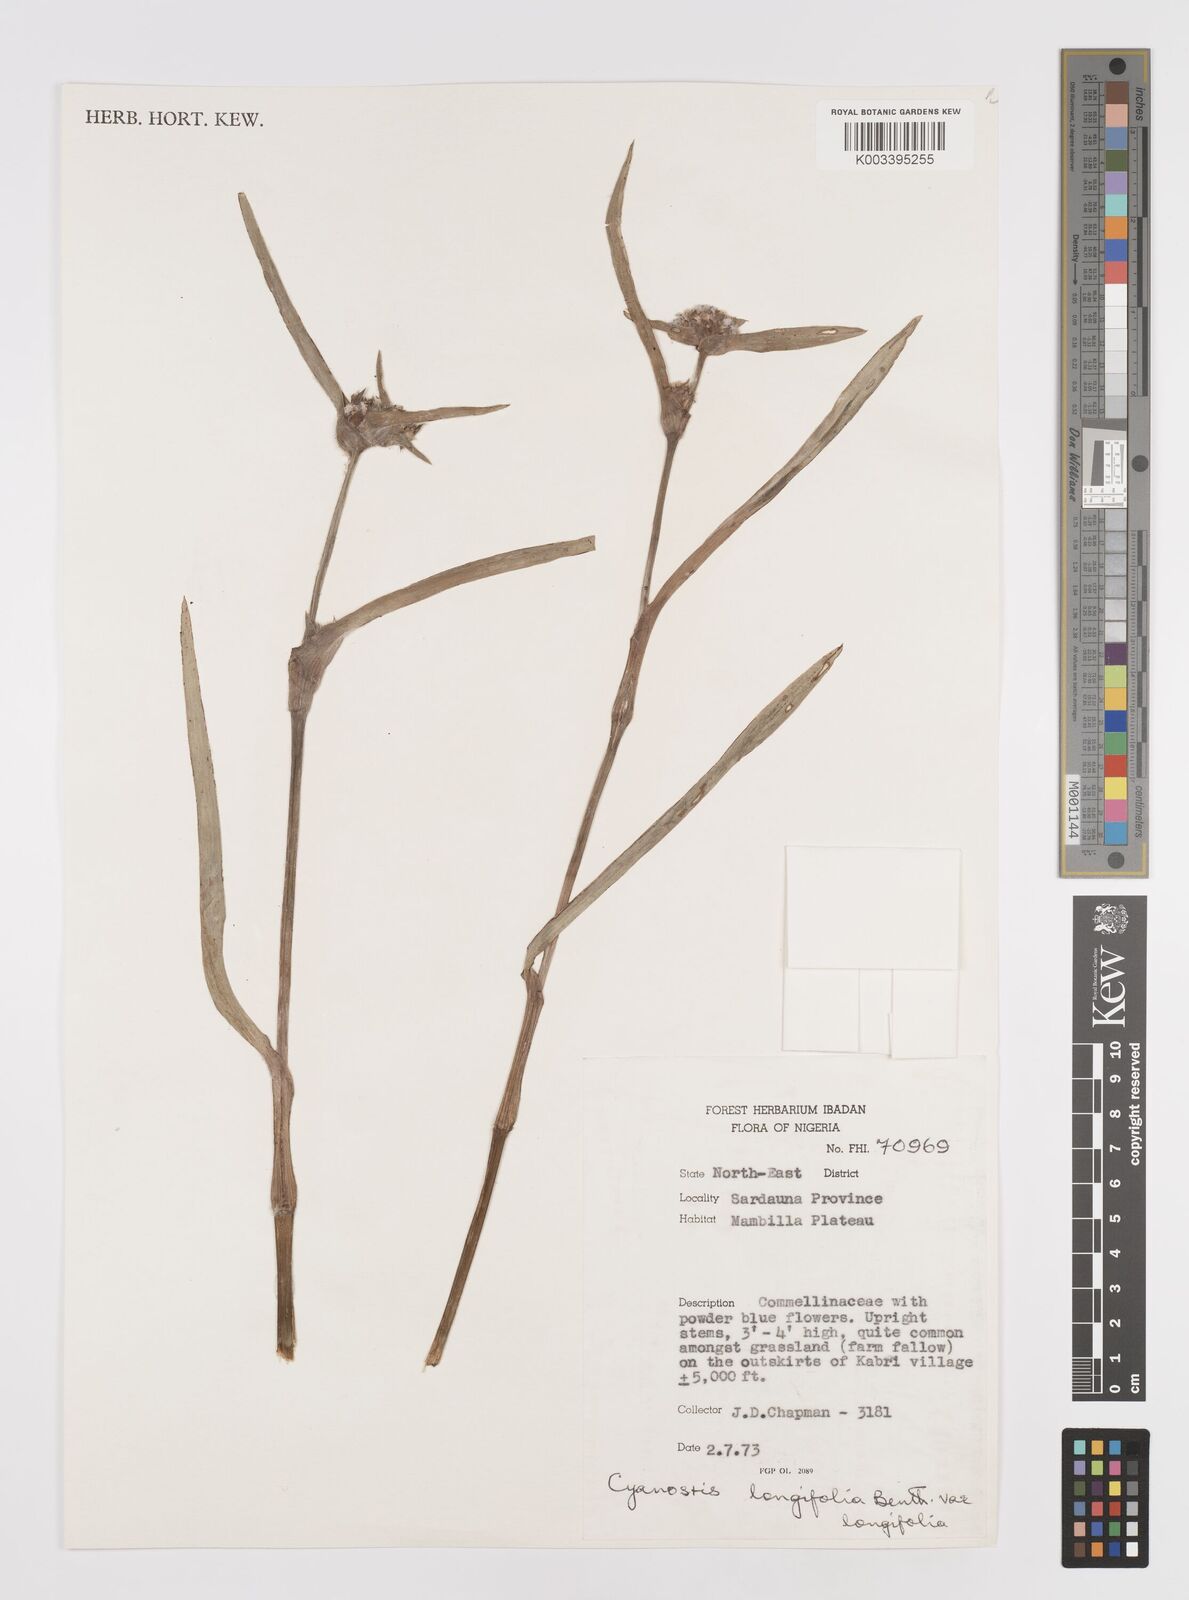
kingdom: Plantae
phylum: Tracheophyta
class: Liliopsida
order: Commelinales
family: Commelinaceae
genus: Cyanotis
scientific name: Cyanotis longifolia
